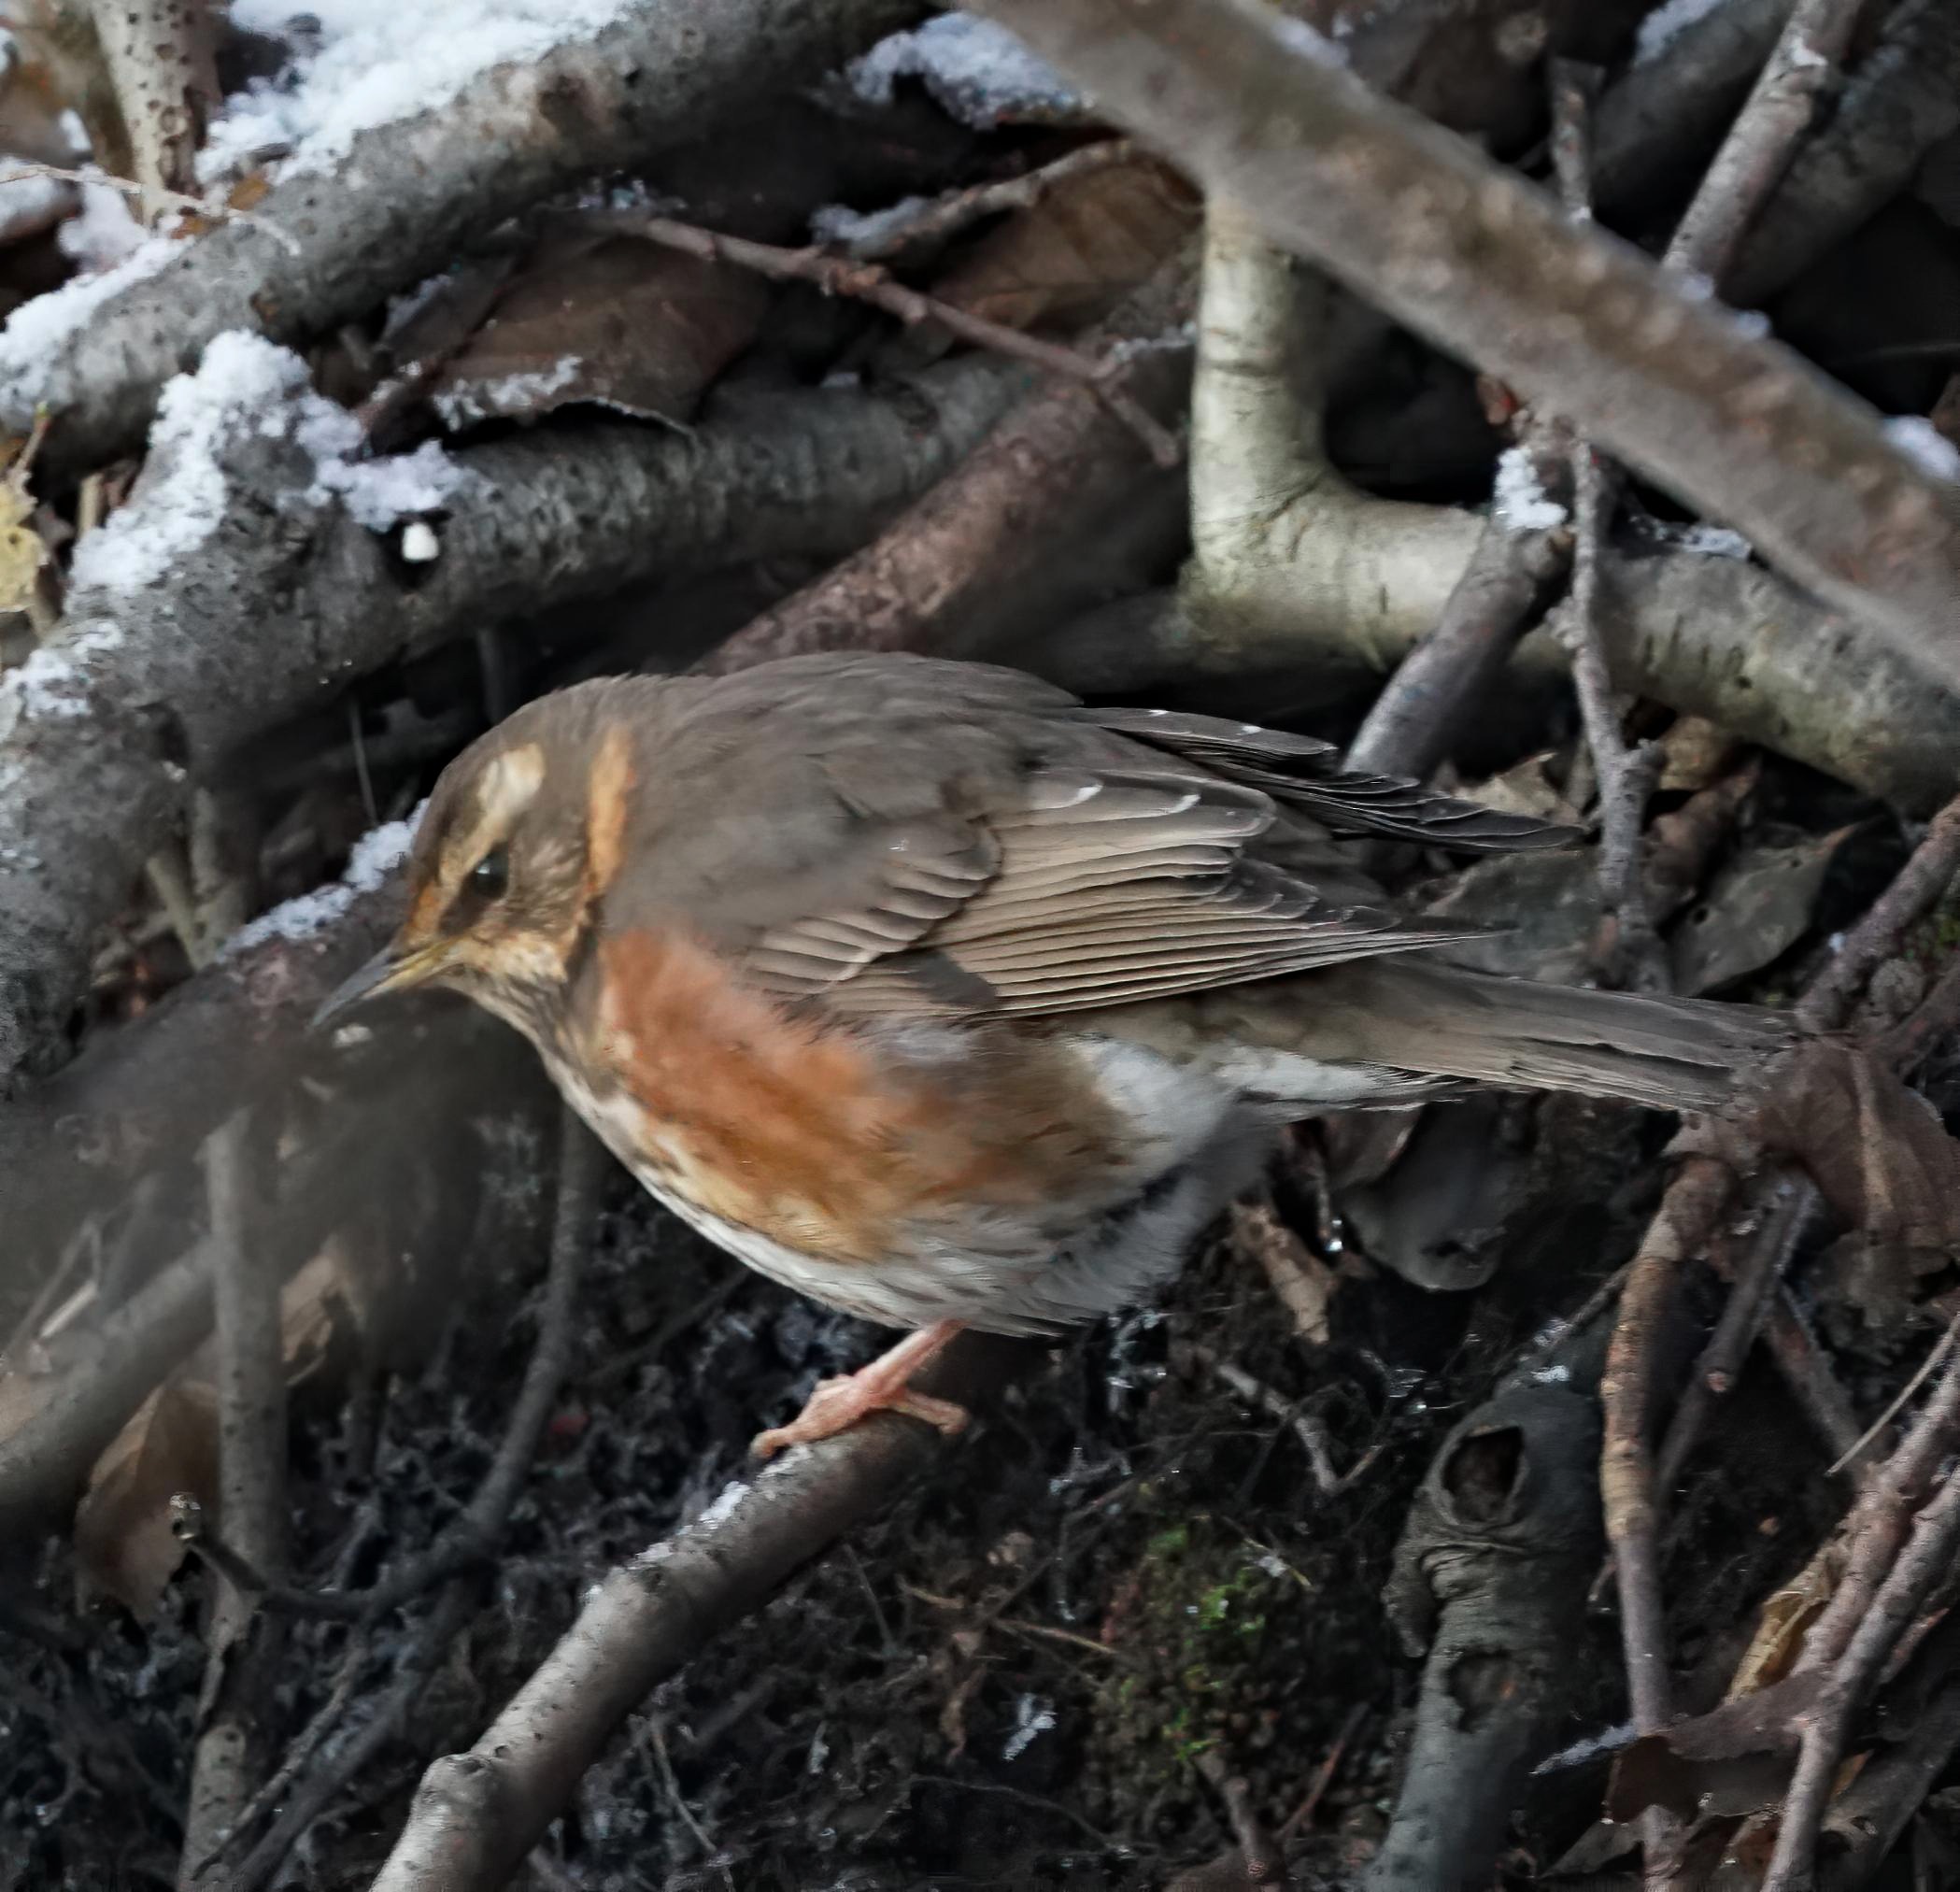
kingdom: Animalia
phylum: Chordata
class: Aves
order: Passeriformes
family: Turdidae
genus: Turdus
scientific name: Turdus iliacus
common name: Vindrossel
